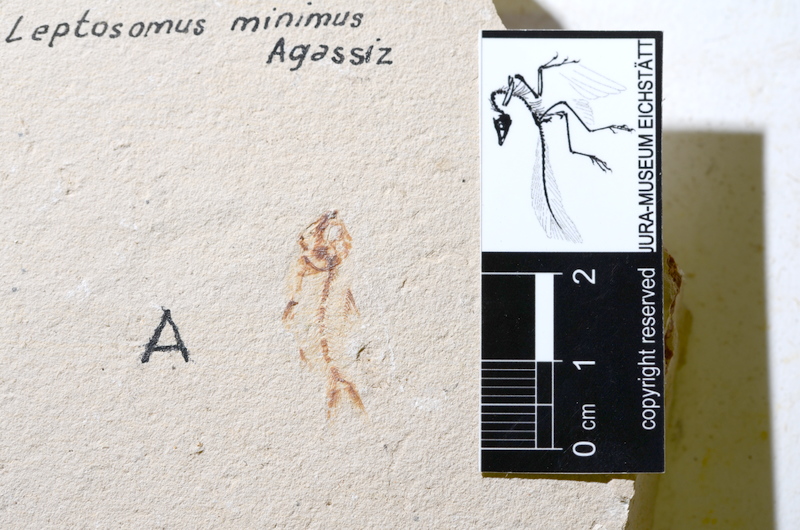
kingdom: Animalia
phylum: Chordata
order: Clupeiformes
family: Clupeidae
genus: Clupea
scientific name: Clupea harengus
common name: Herring
